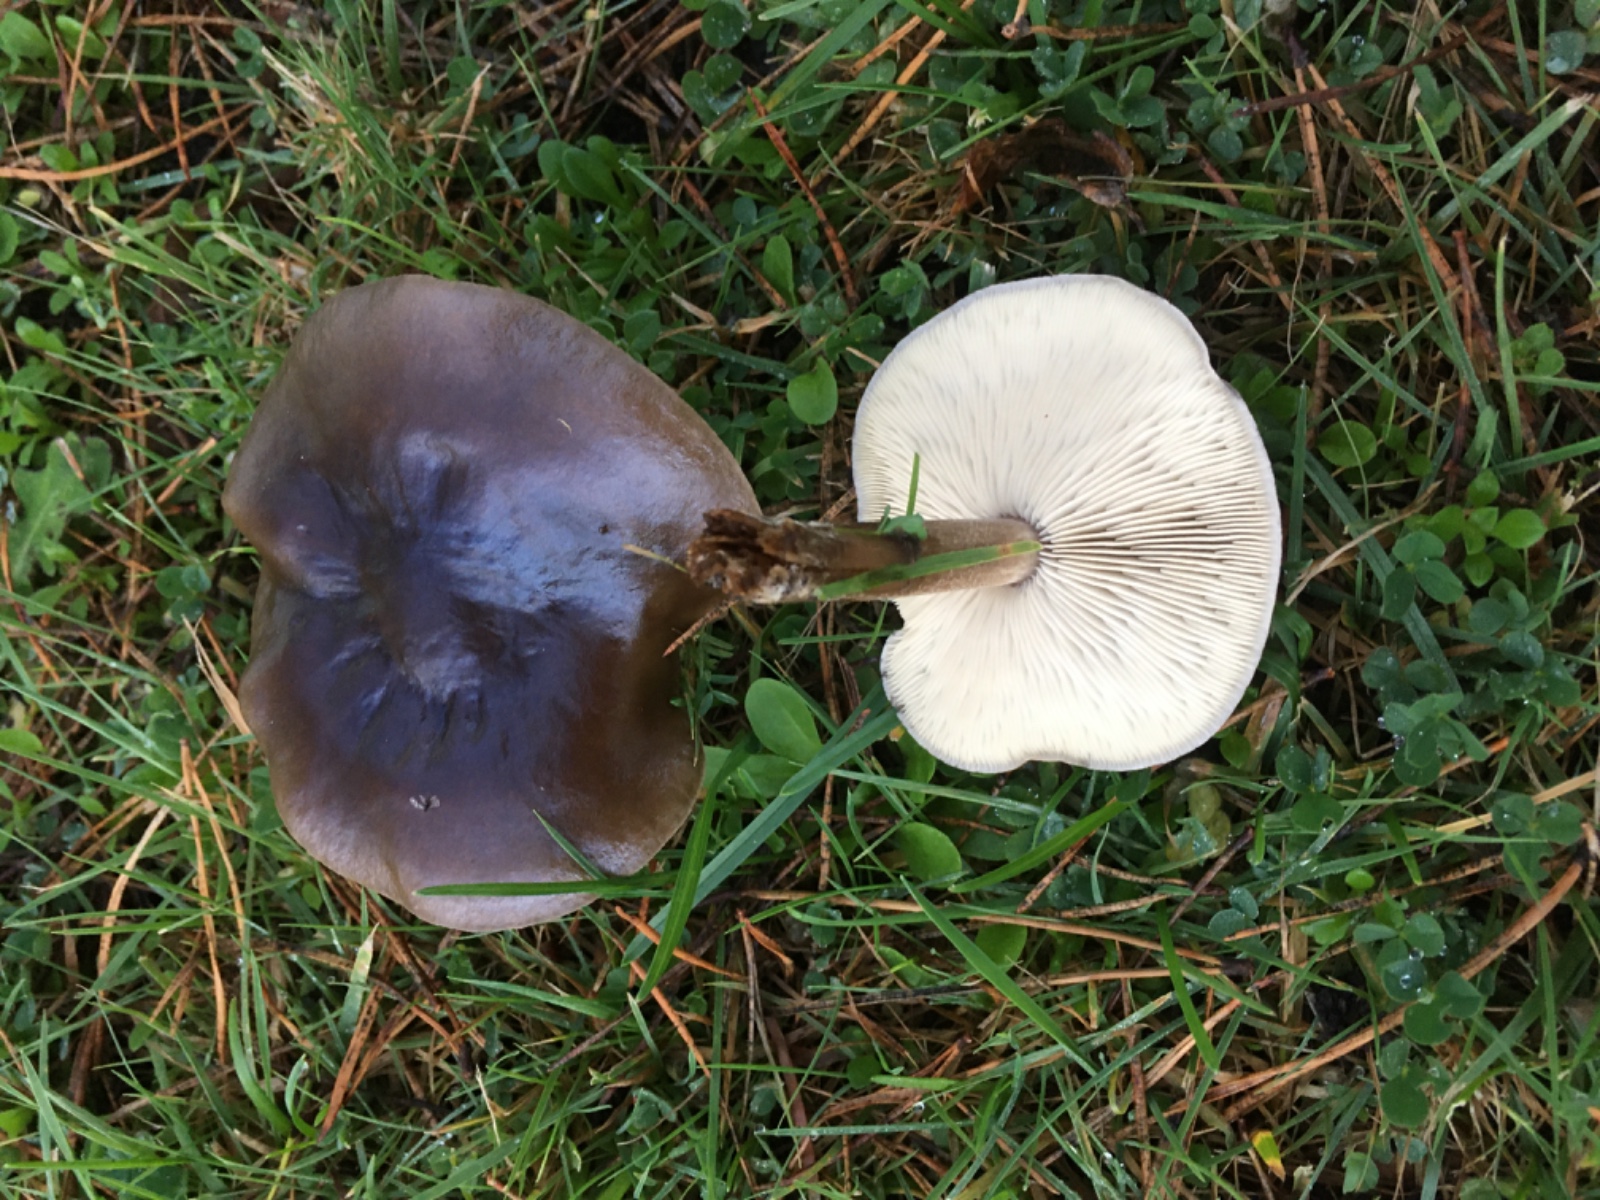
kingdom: Fungi
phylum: Basidiomycota
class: Agaricomycetes
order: Agaricales
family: Tricholomataceae
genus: Melanoleuca
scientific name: Melanoleuca
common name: munkehat
